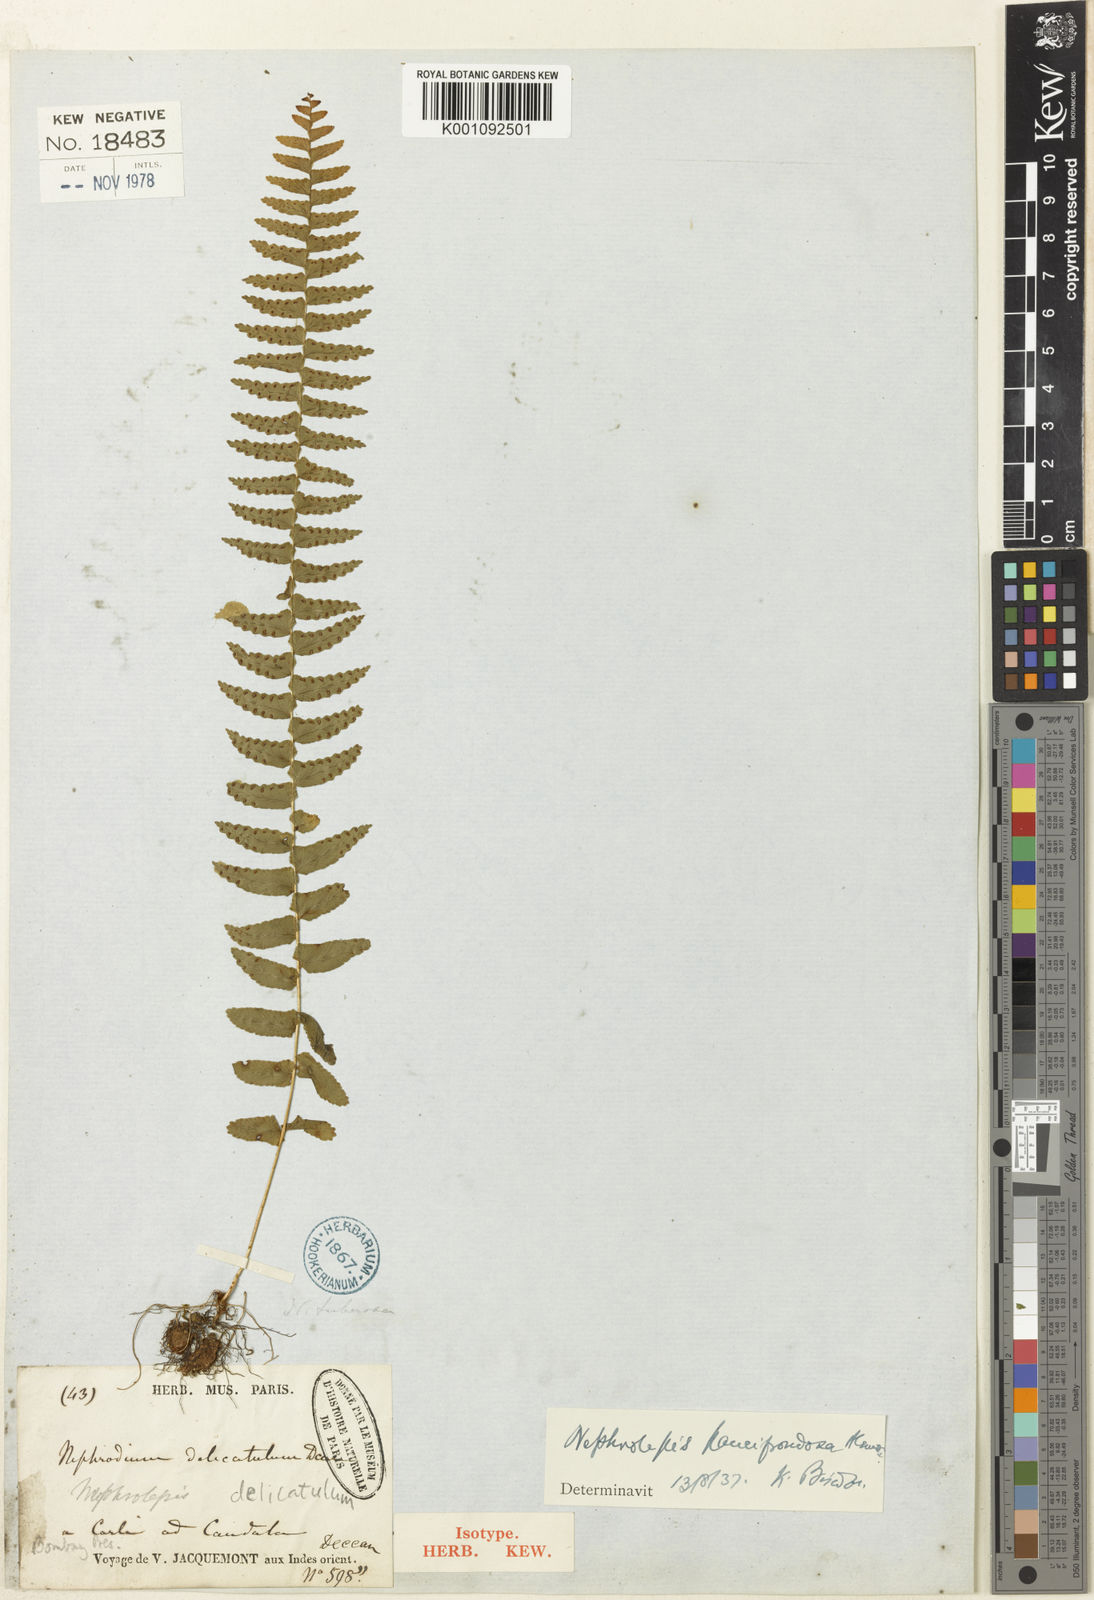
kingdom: Plantae
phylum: Tracheophyta
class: Polypodiopsida
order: Polypodiales
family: Nephrolepidaceae
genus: Nephrolepis
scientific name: Nephrolepis delicatula
